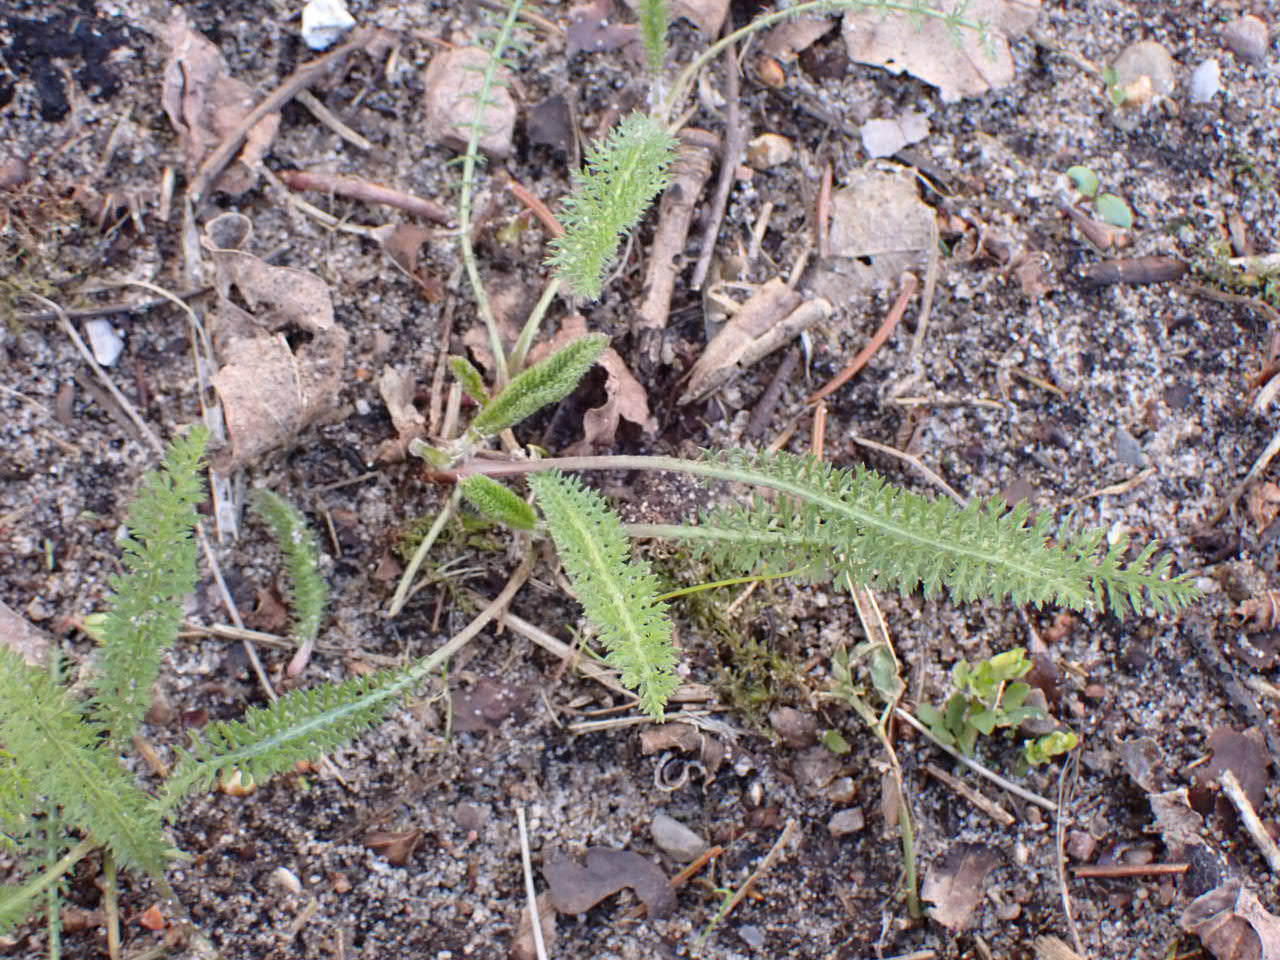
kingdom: Plantae
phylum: Tracheophyta
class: Magnoliopsida
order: Asterales
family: Asteraceae
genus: Achillea
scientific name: Achillea millefolium
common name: Almindelig røllike
